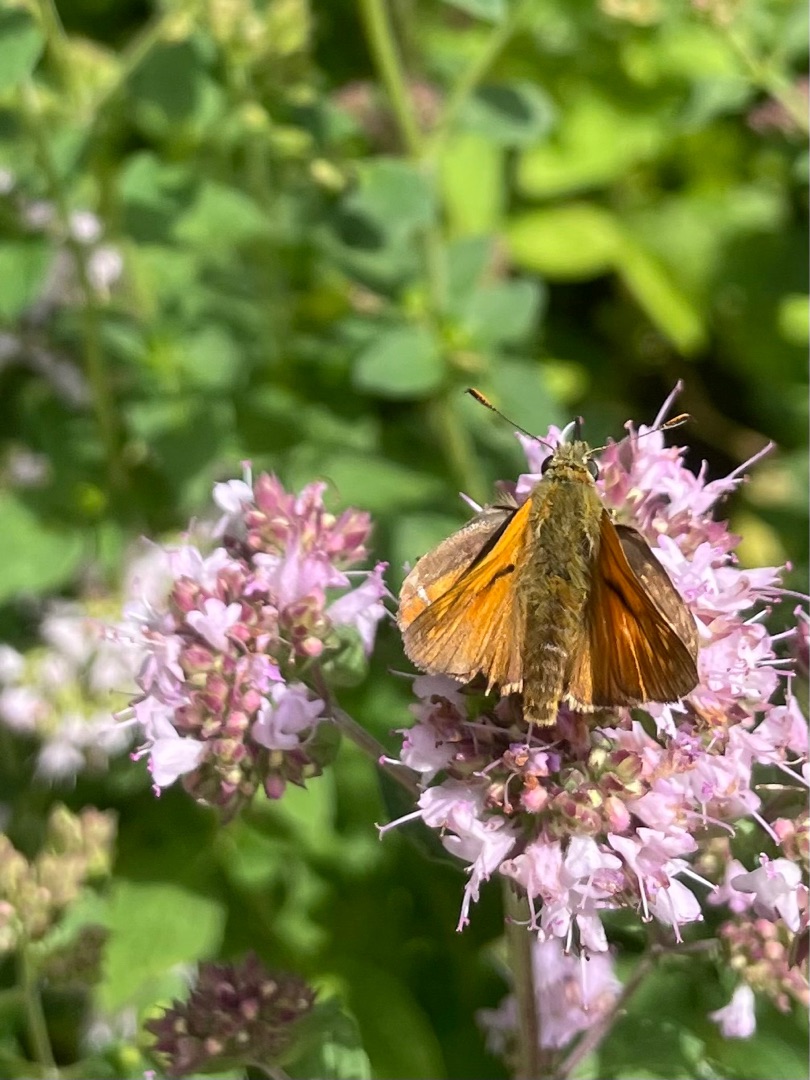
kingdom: Animalia
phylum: Arthropoda
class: Insecta
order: Lepidoptera
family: Hesperiidae
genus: Ochlodes
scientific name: Ochlodes venata
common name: Stor bredpande
